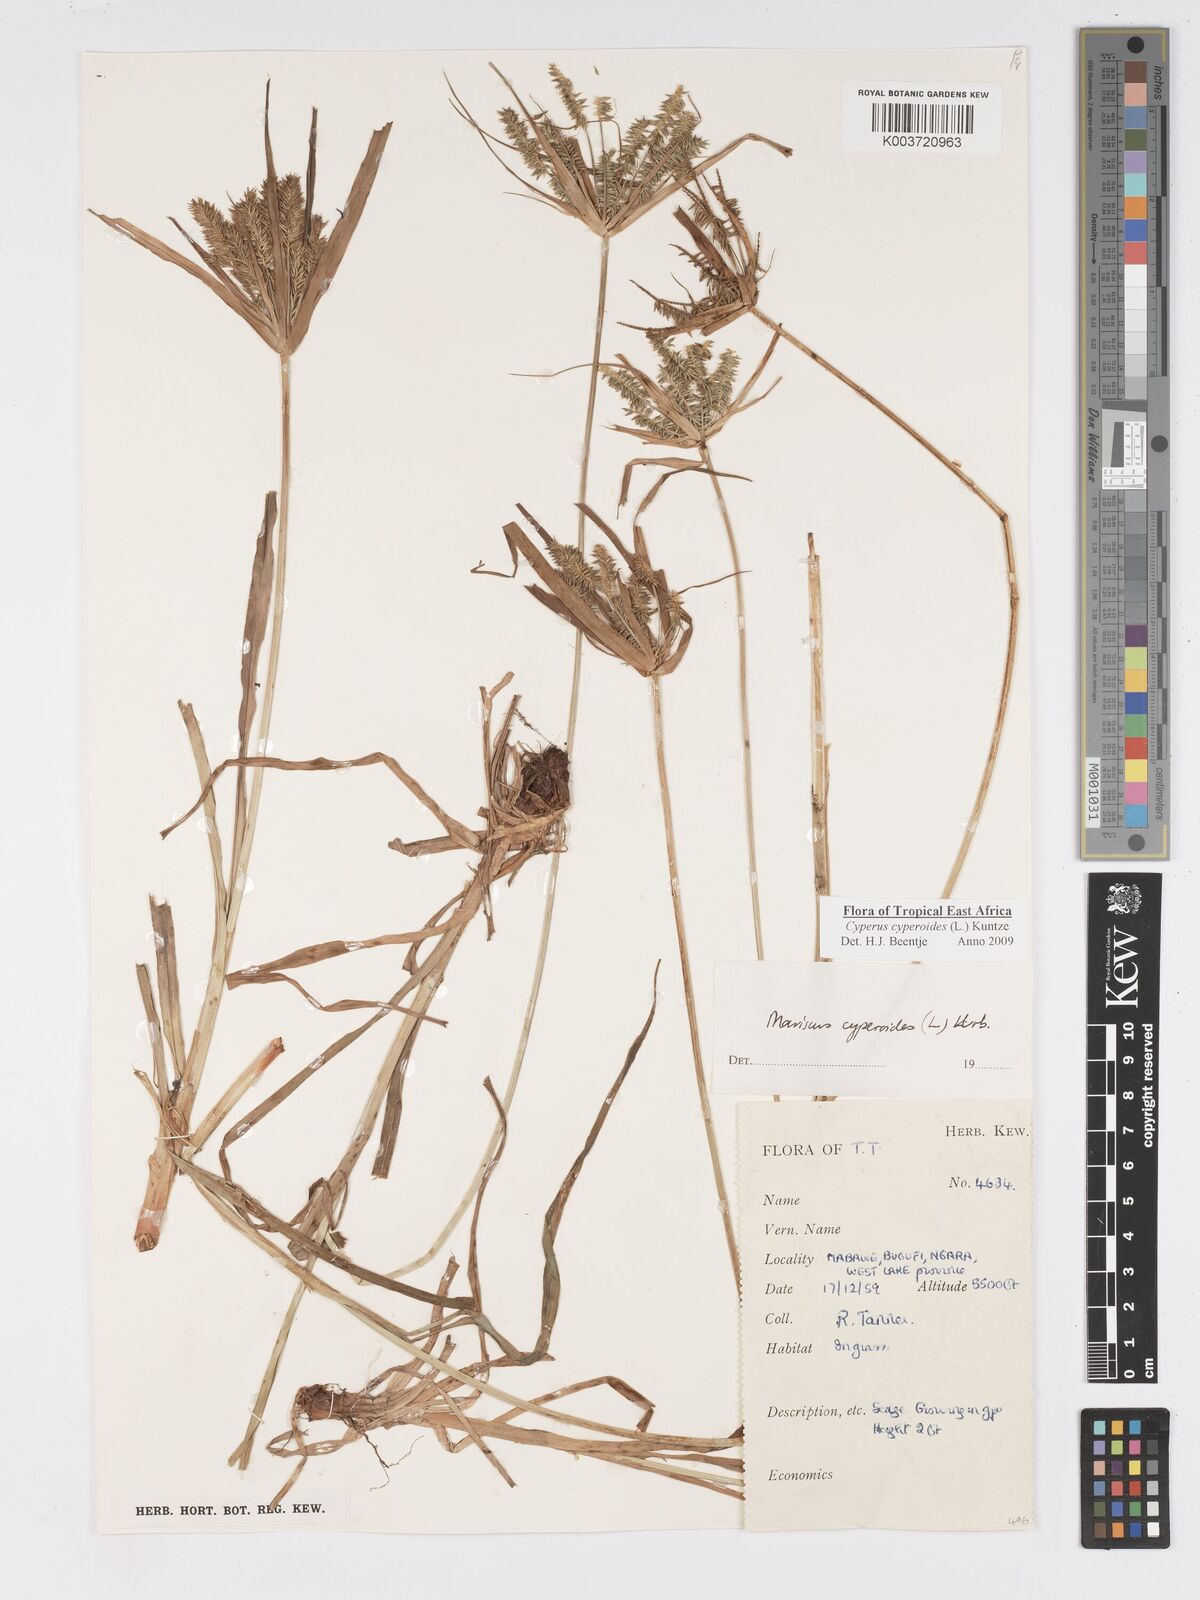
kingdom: Plantae
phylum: Tracheophyta
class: Liliopsida
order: Poales
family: Cyperaceae
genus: Cyperus
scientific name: Cyperus cyperoides
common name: Pacific island flat sedge
